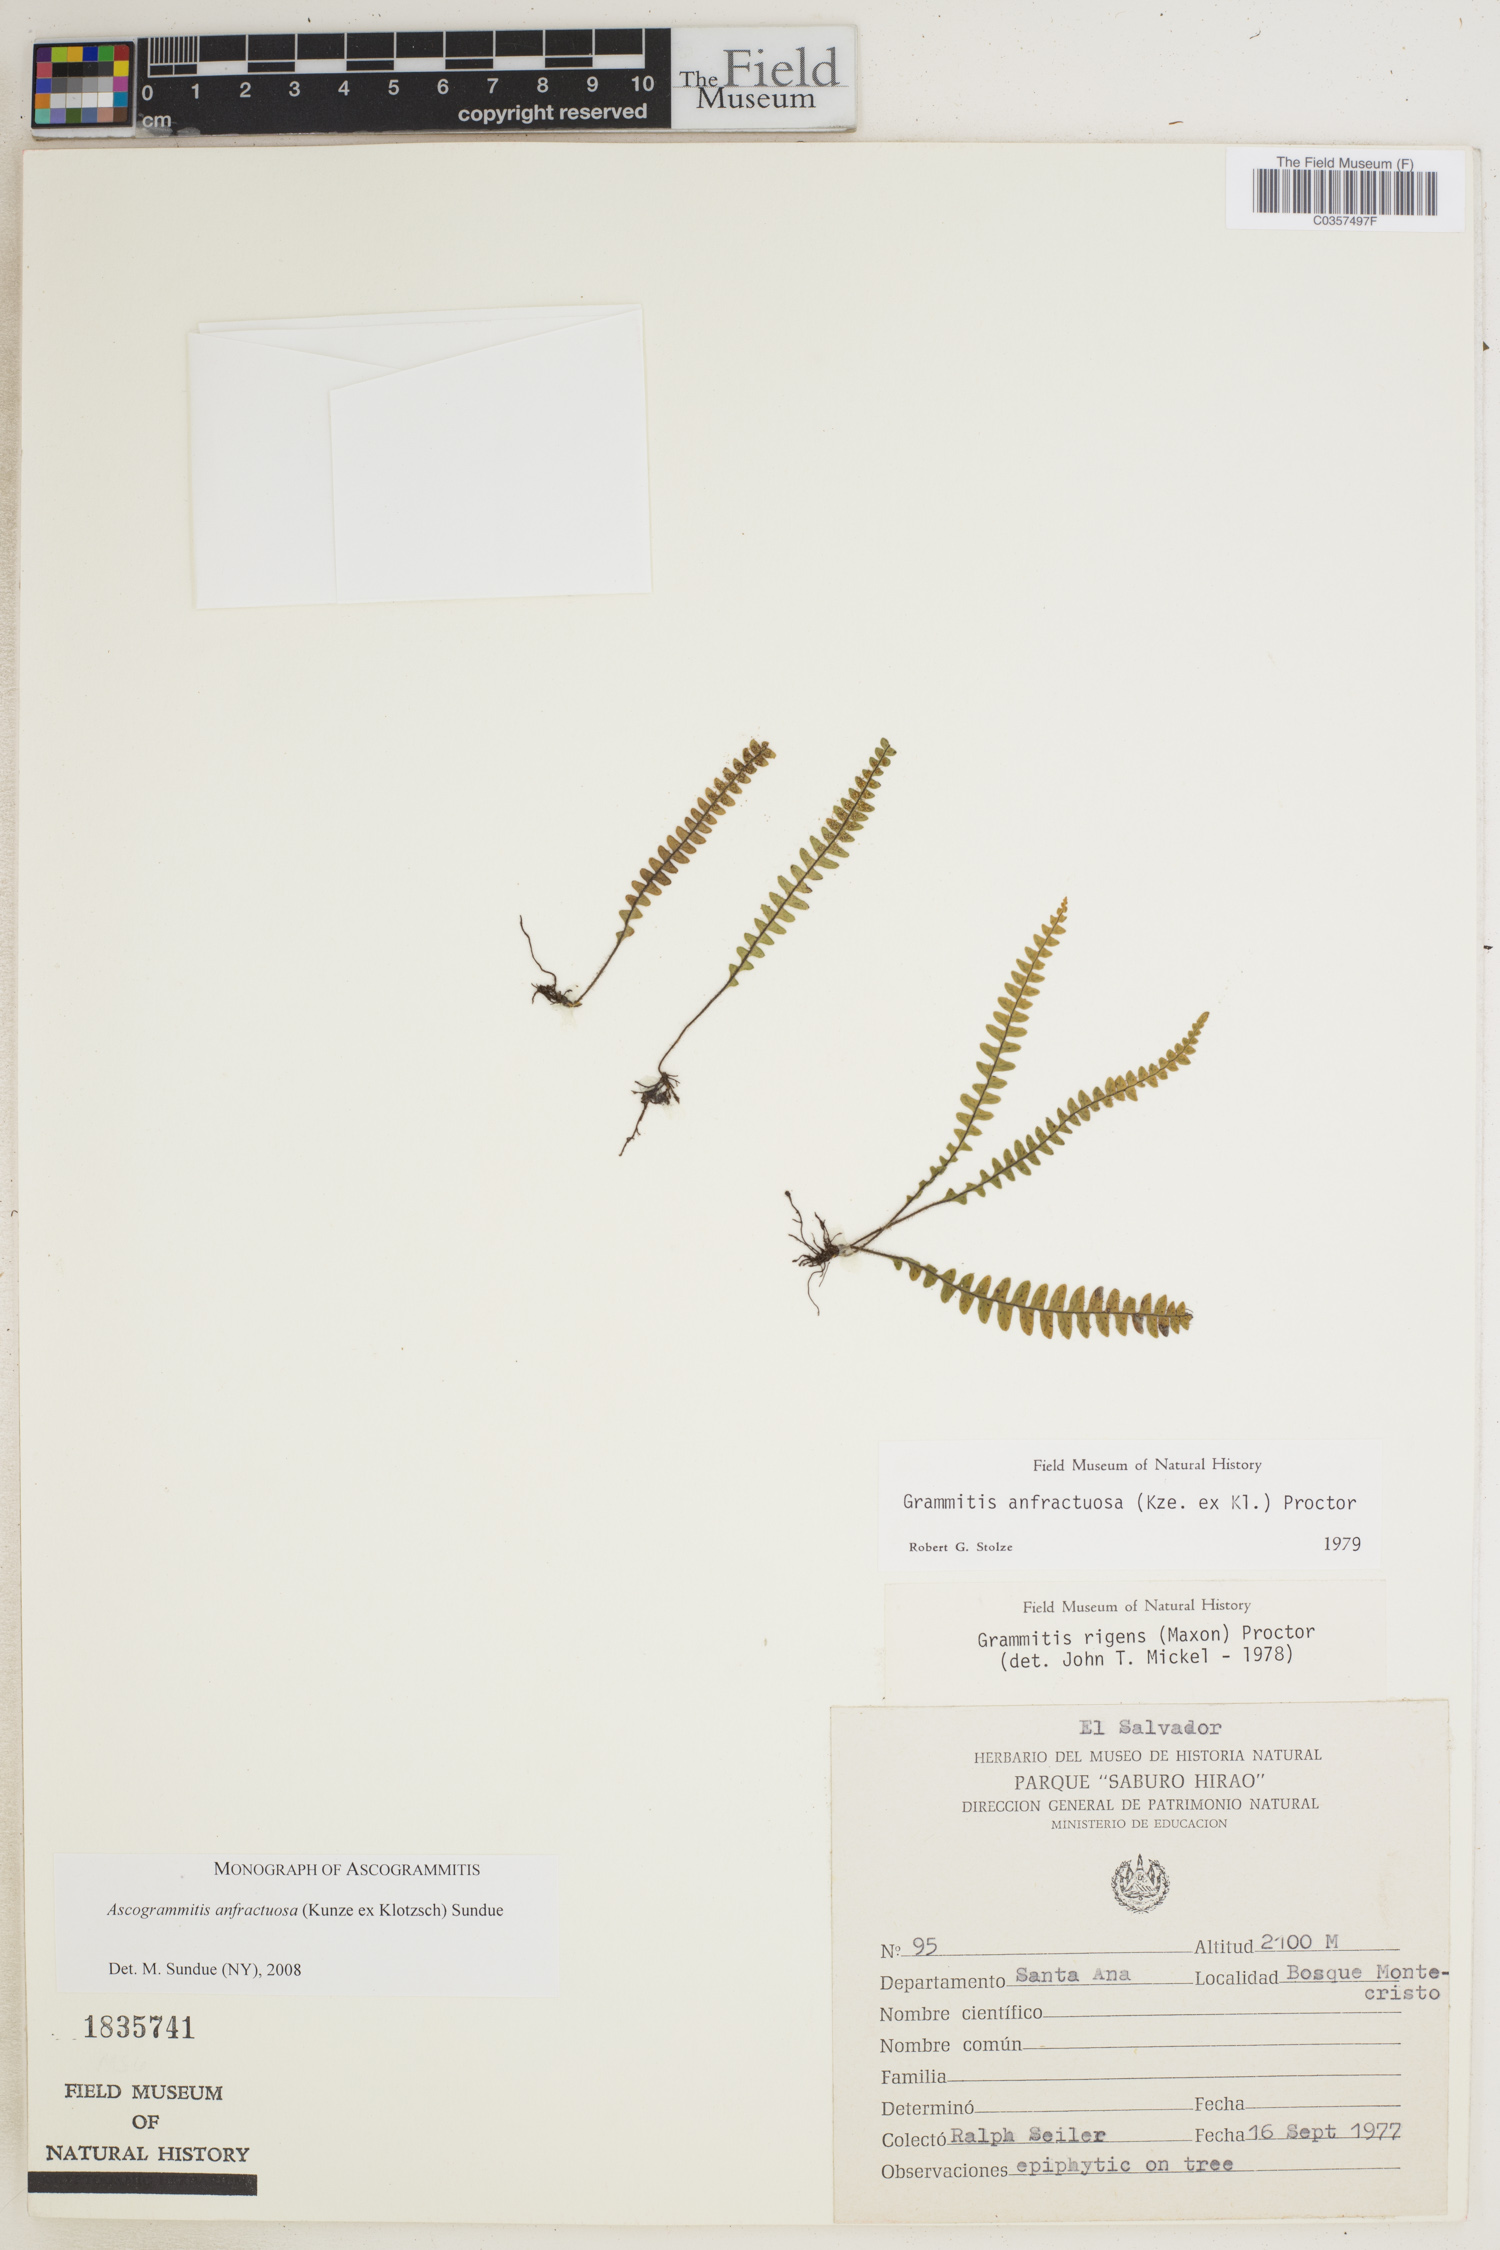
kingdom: Plantae
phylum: Tracheophyta
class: Polypodiopsida
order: Polypodiales
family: Polypodiaceae
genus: Ascogrammitis
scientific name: Ascogrammitis anfractuosa
